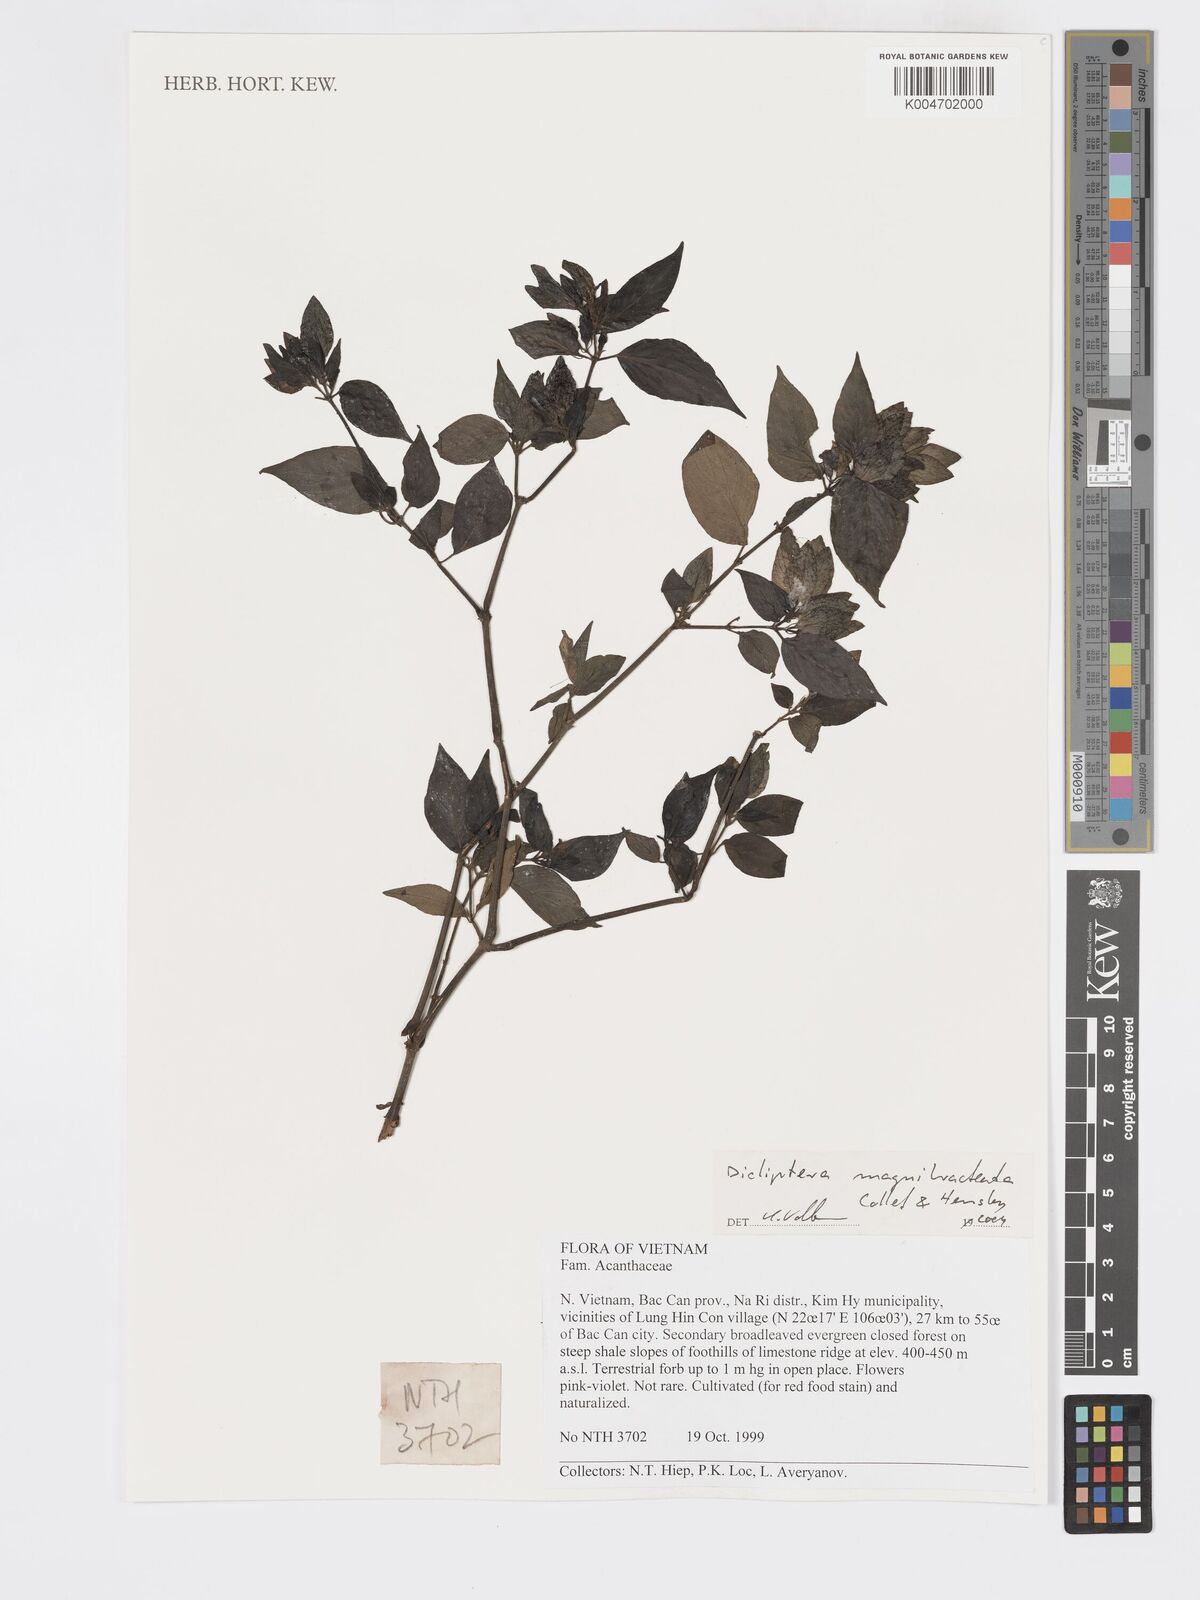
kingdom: Plantae
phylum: Tracheophyta
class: Magnoliopsida
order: Lamiales
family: Acanthaceae
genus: Dicliptera
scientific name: Dicliptera magnibracteata
